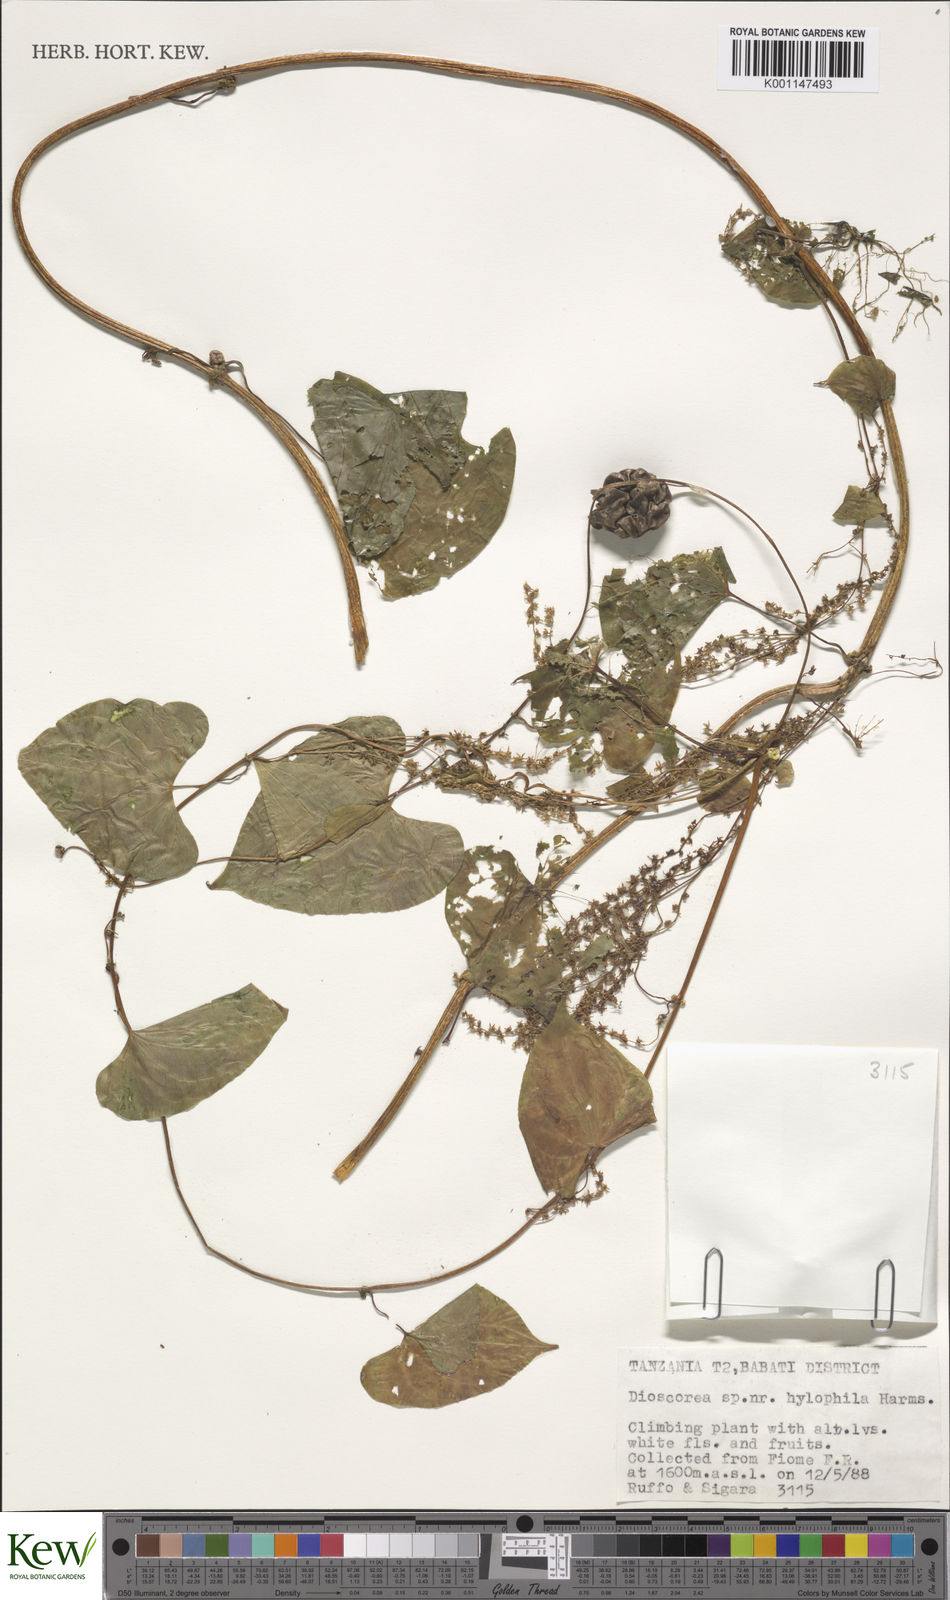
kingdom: Plantae
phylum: Tracheophyta
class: Liliopsida
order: Dioscoreales
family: Dioscoreaceae
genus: Dioscorea
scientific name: Dioscorea
